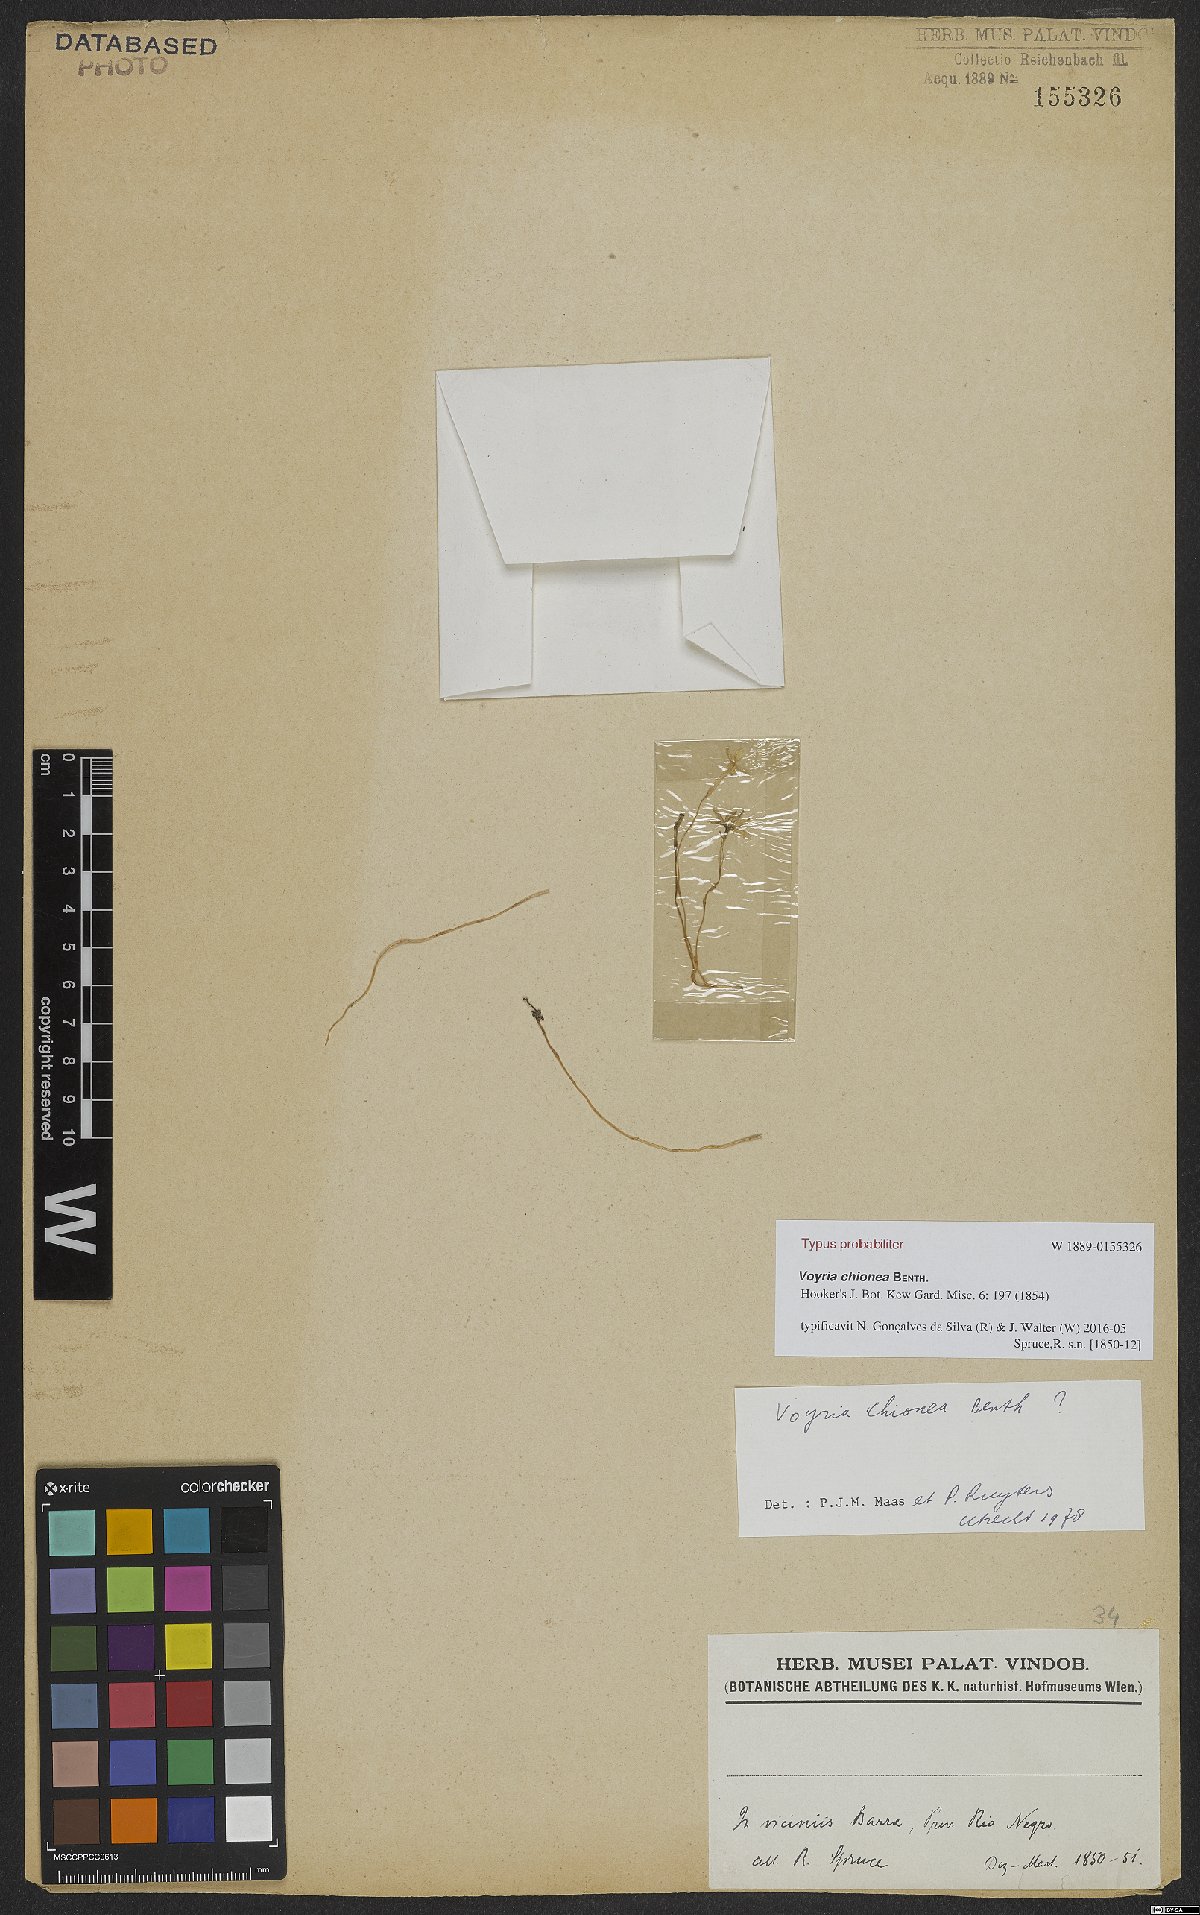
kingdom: Plantae
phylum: Tracheophyta
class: Magnoliopsida
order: Gentianales
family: Gentianaceae
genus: Voyria
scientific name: Voyria chionea
